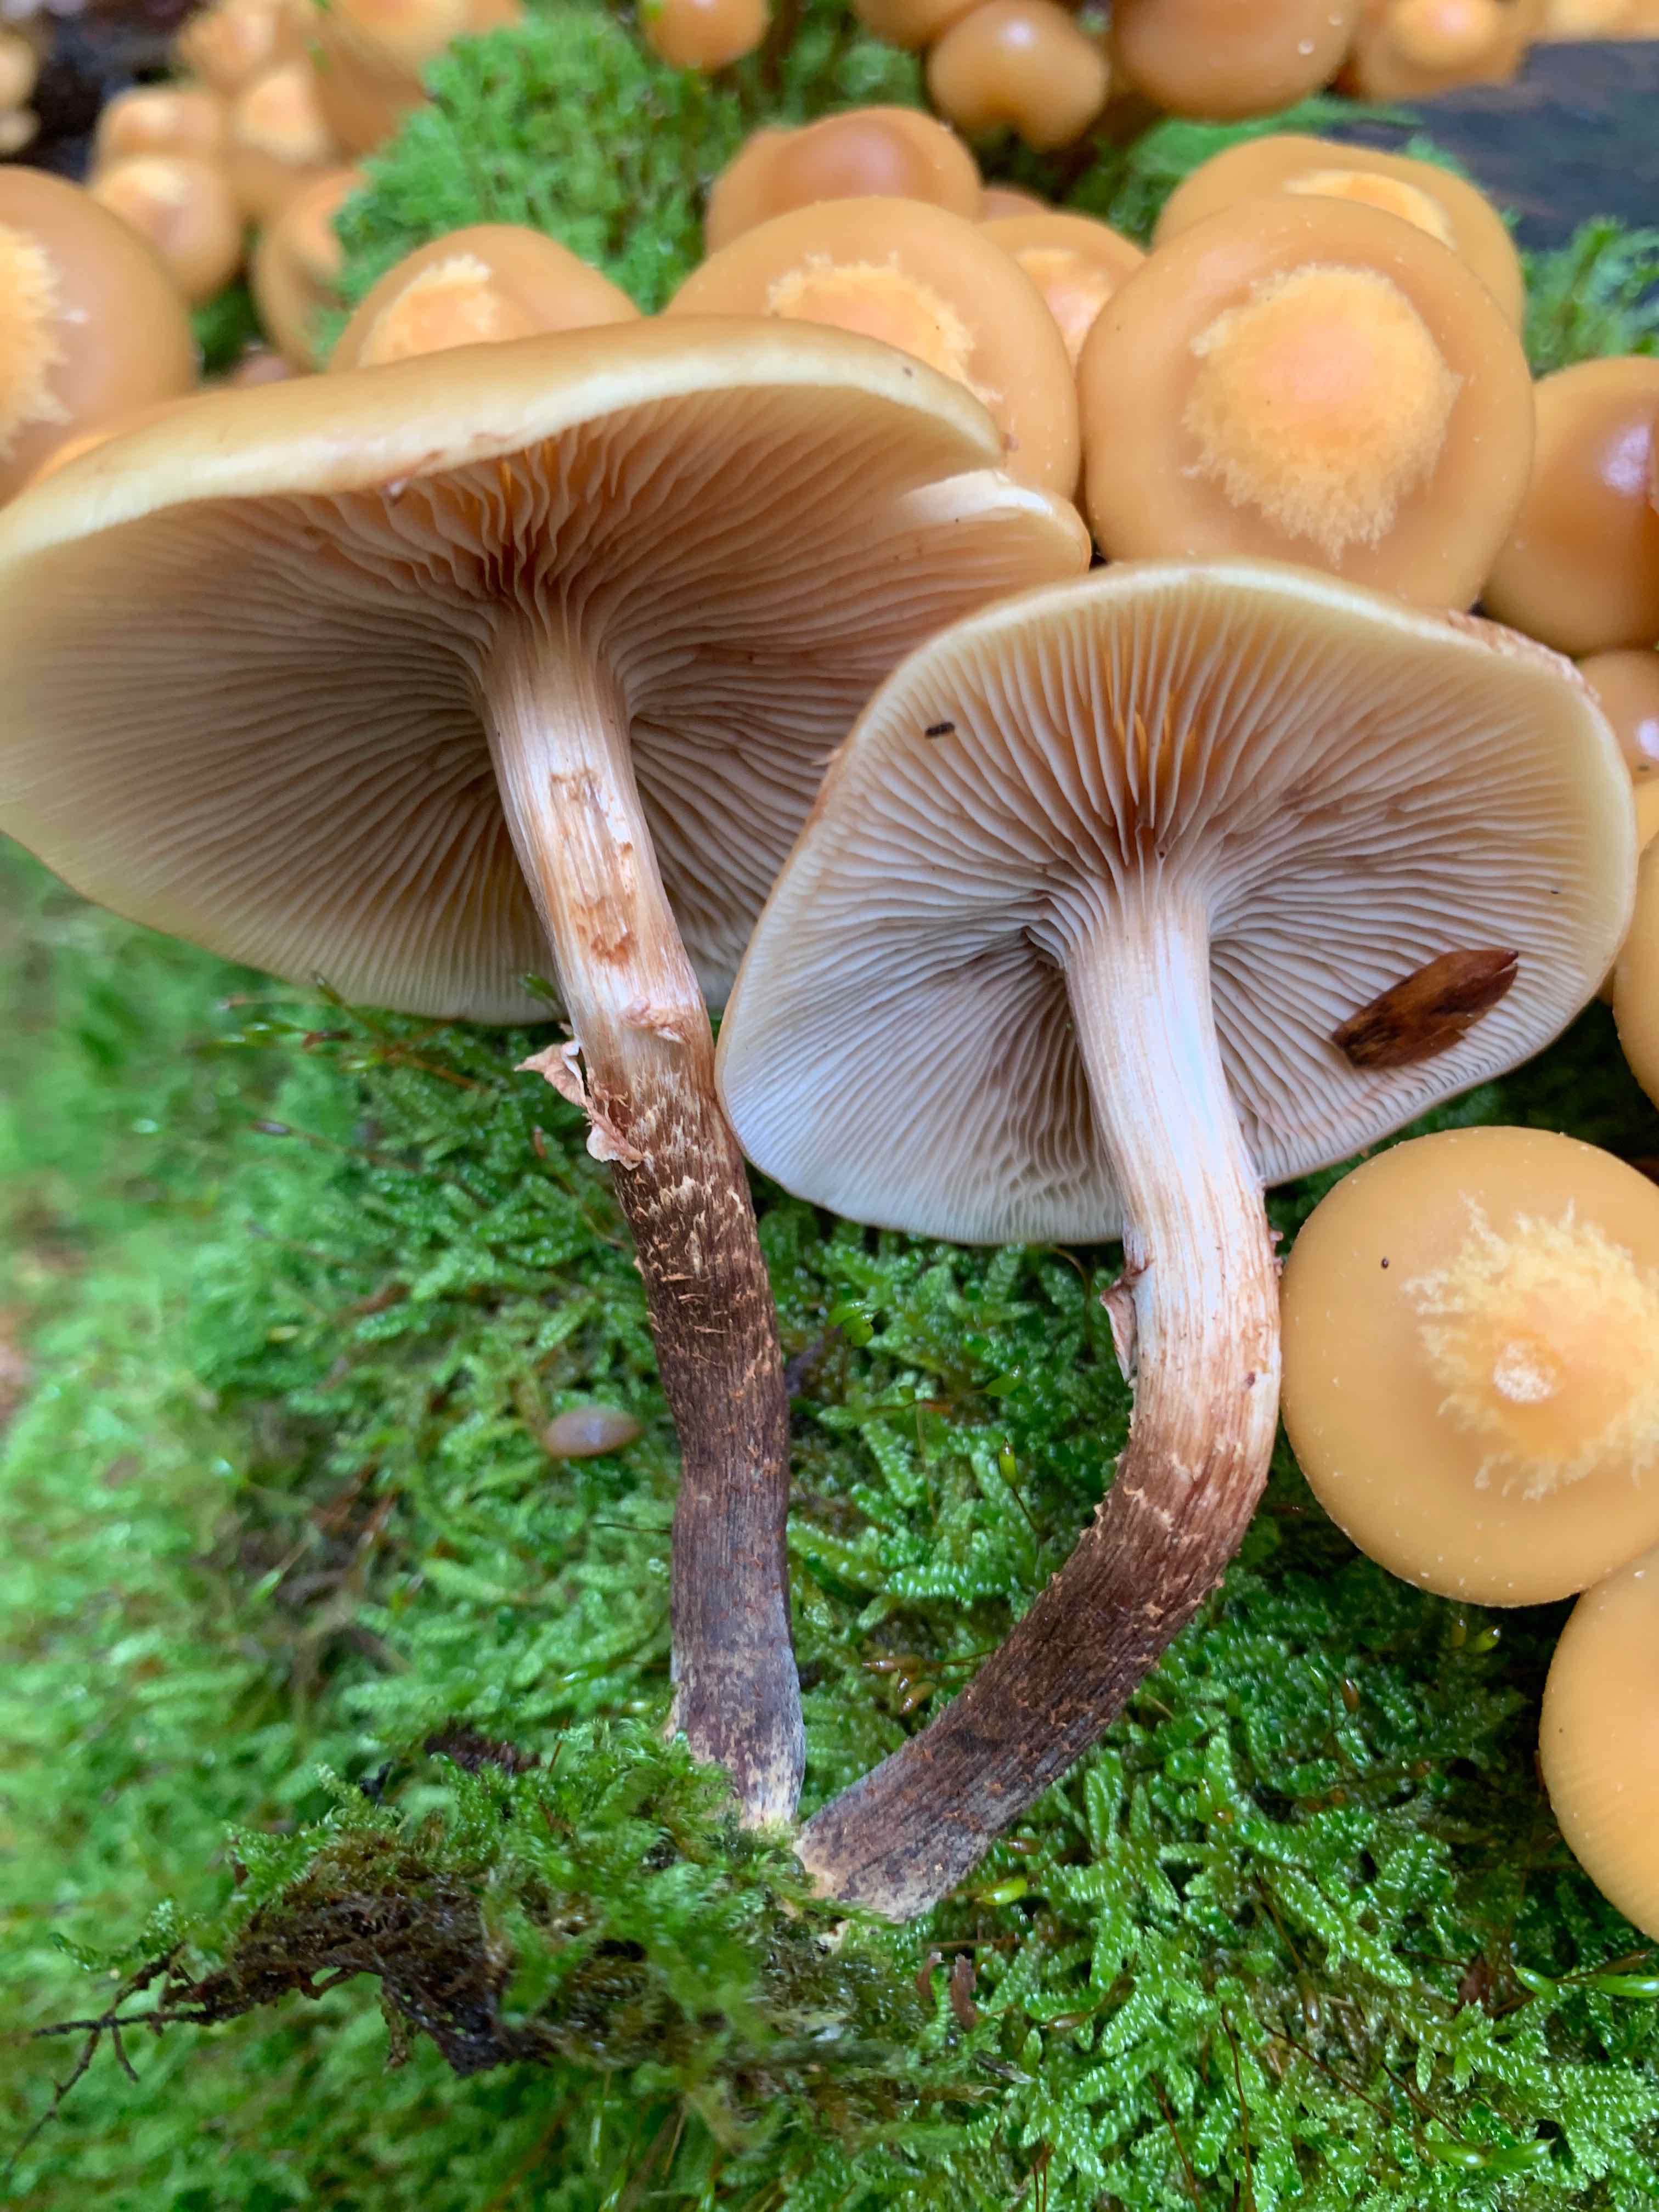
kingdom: Fungi
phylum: Basidiomycota
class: Agaricomycetes
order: Agaricales
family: Strophariaceae
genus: Kuehneromyces
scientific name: Kuehneromyces mutabilis
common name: foranderlig skælhat
